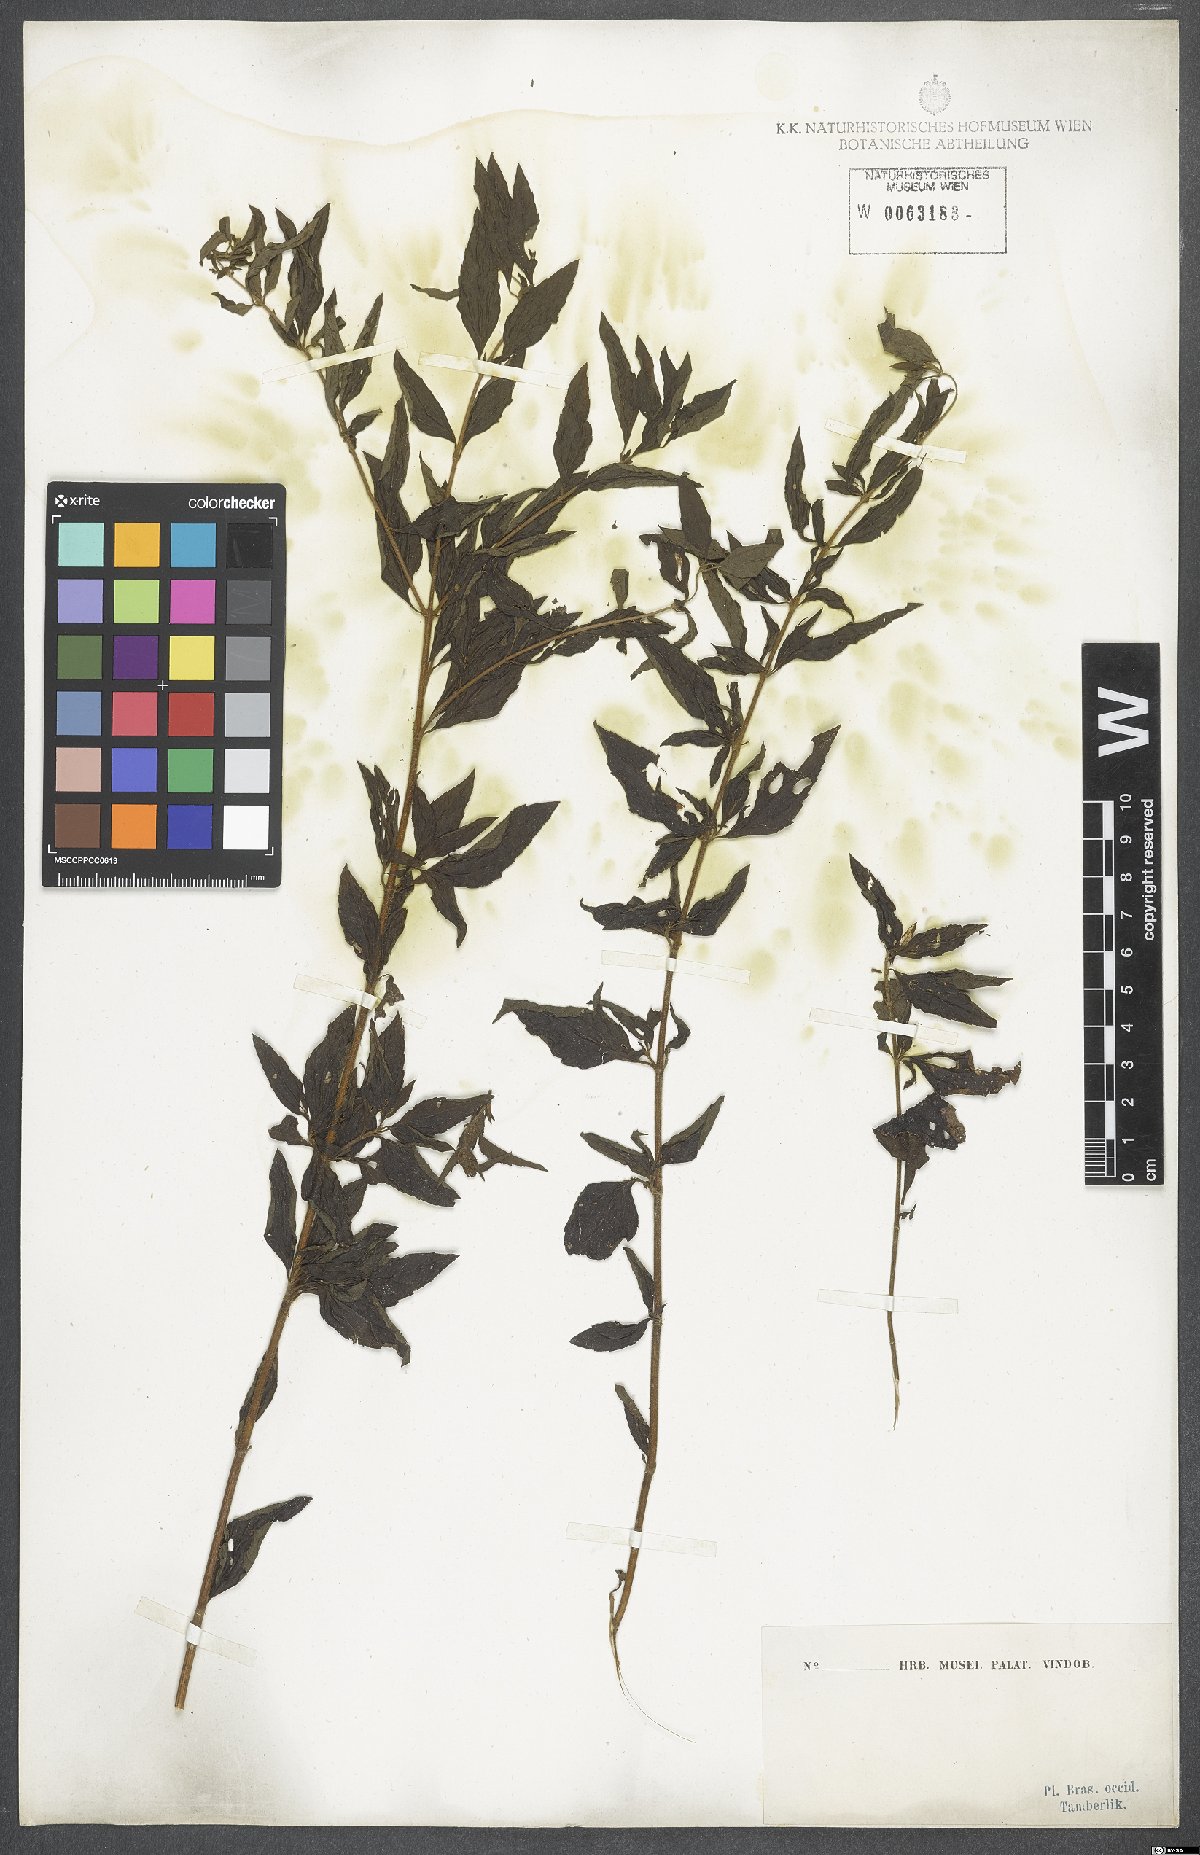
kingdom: Plantae
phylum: Tracheophyta
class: Magnoliopsida
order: Asterales
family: Asteraceae
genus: Eupatorium
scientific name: Eupatorium
